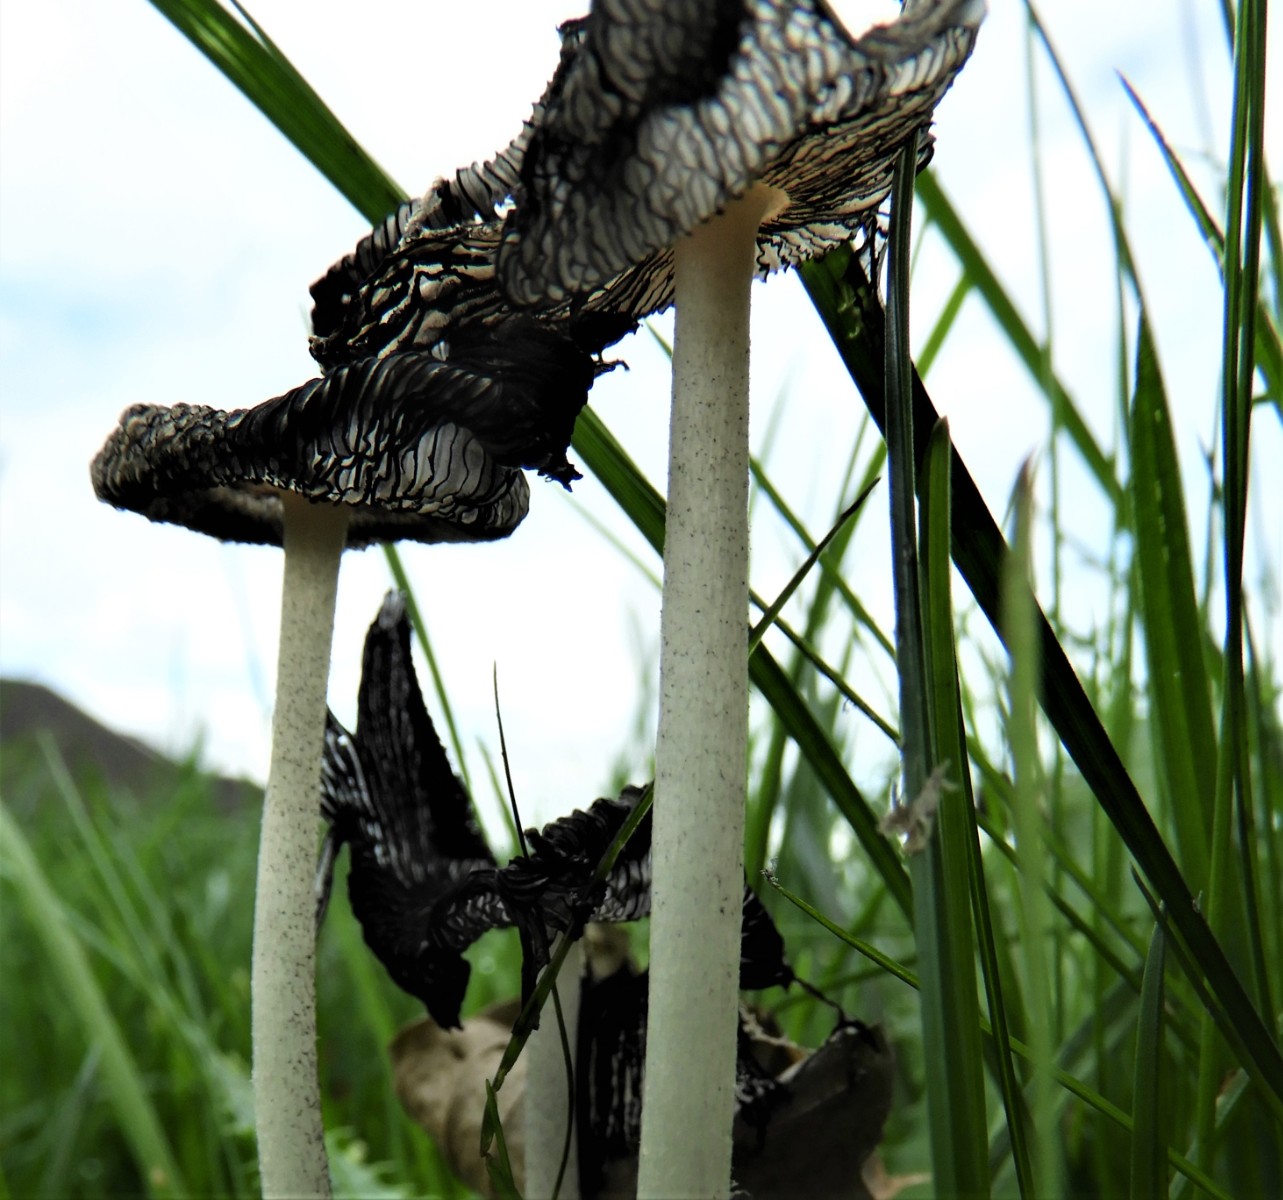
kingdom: Fungi
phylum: Basidiomycota
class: Agaricomycetes
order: Agaricales
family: Psathyrellaceae
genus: Coprinopsis
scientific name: Coprinopsis lagopus
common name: dunstokket blækhat
